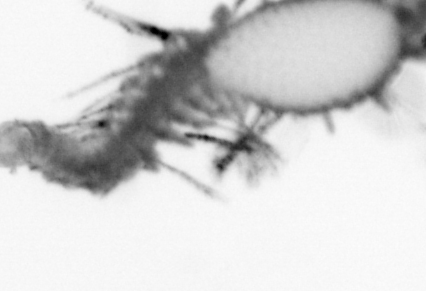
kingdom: Animalia
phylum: Annelida
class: Polychaeta
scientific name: Polychaeta
